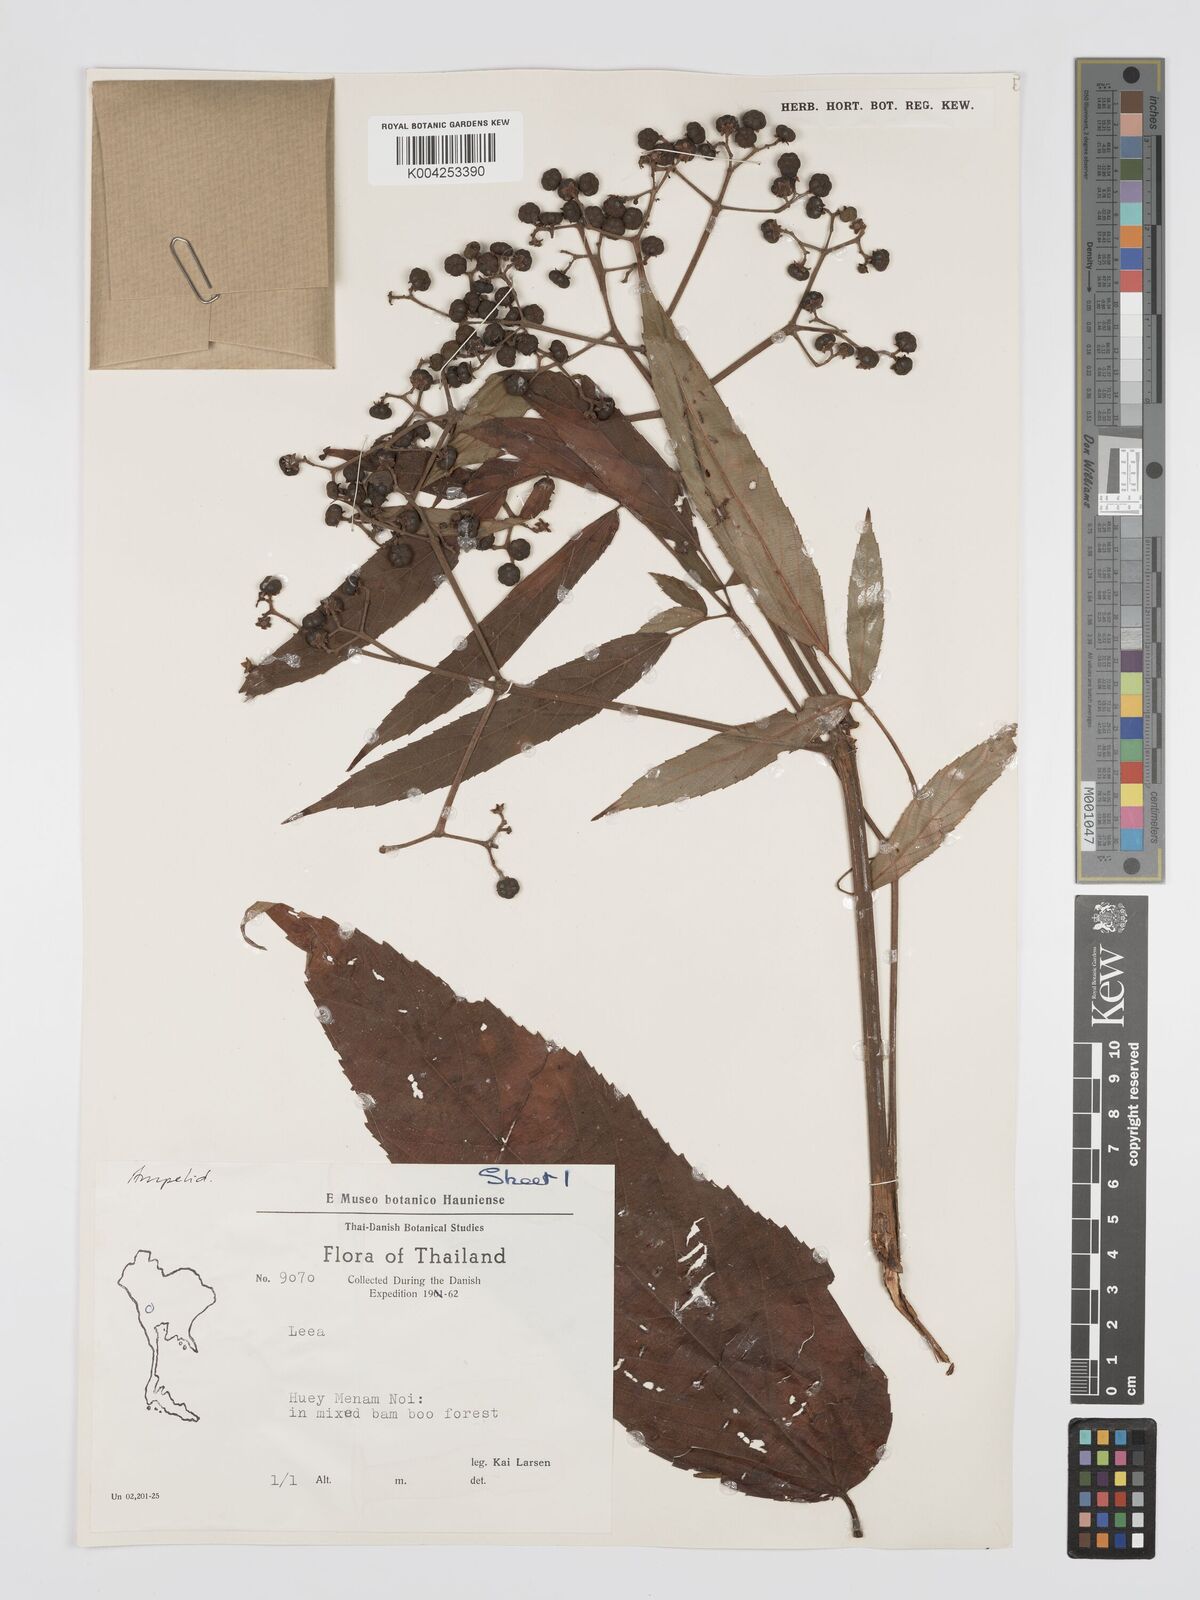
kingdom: Plantae
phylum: Tracheophyta
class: Magnoliopsida
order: Vitales
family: Vitaceae
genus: Leea
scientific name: Leea
